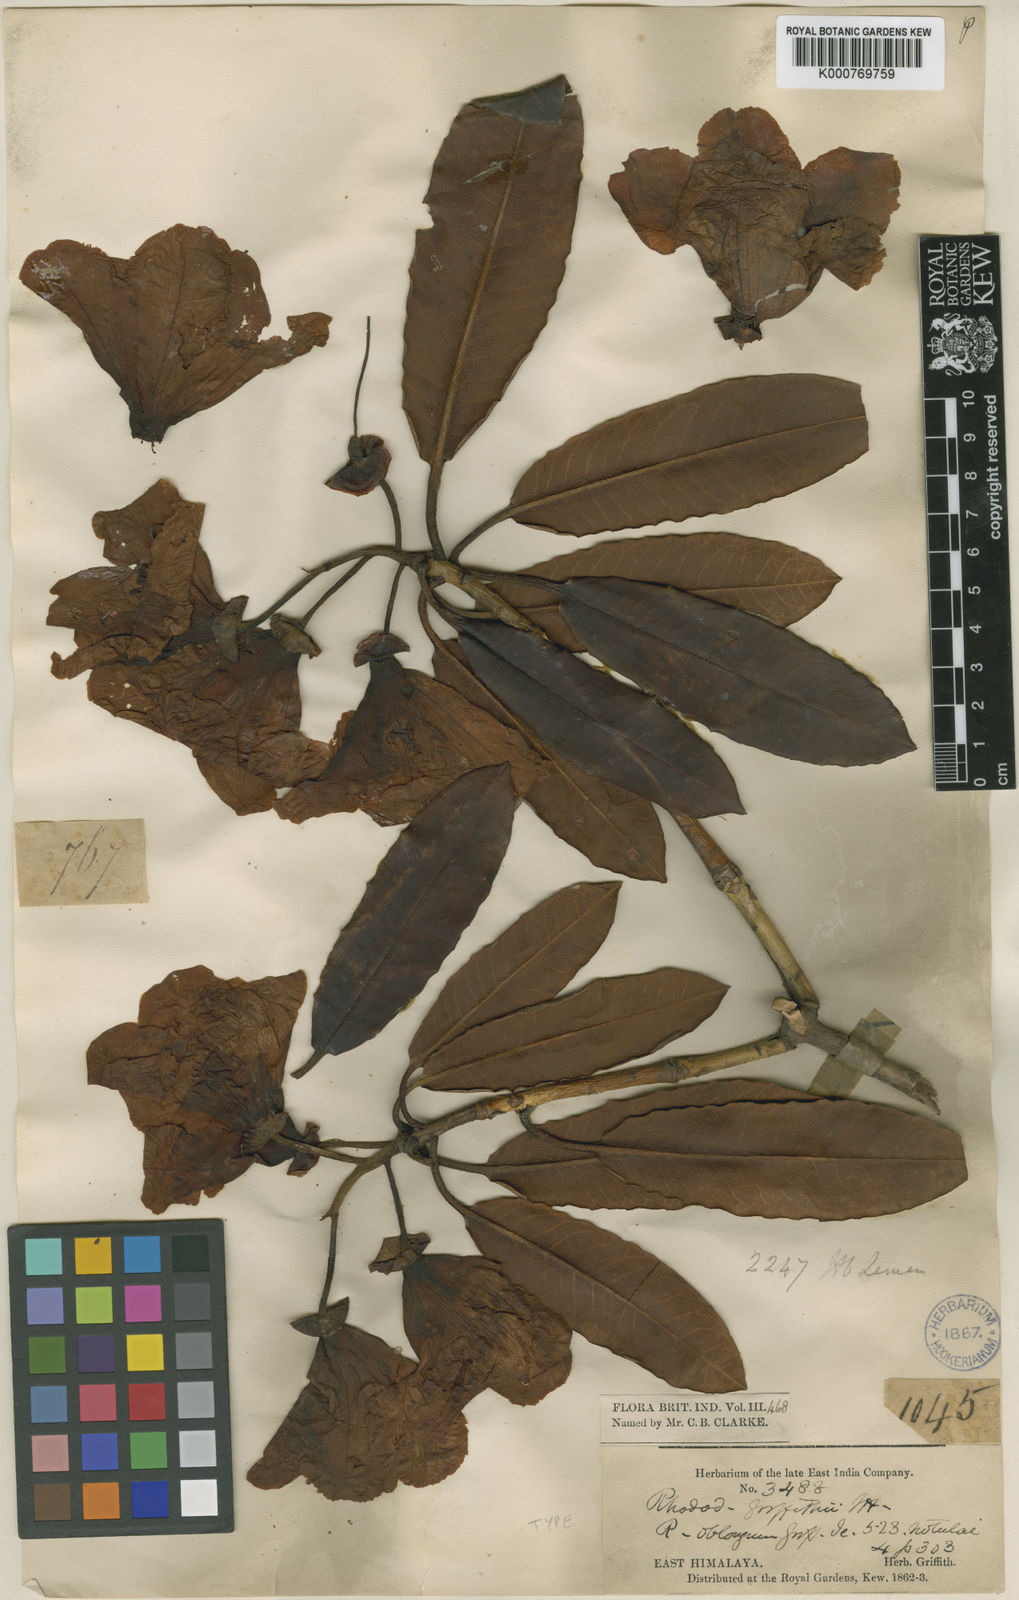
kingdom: Plantae
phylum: Tracheophyta
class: Magnoliopsida
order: Ericales
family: Ericaceae
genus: Rhododendron
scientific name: Rhododendron griffithianum
